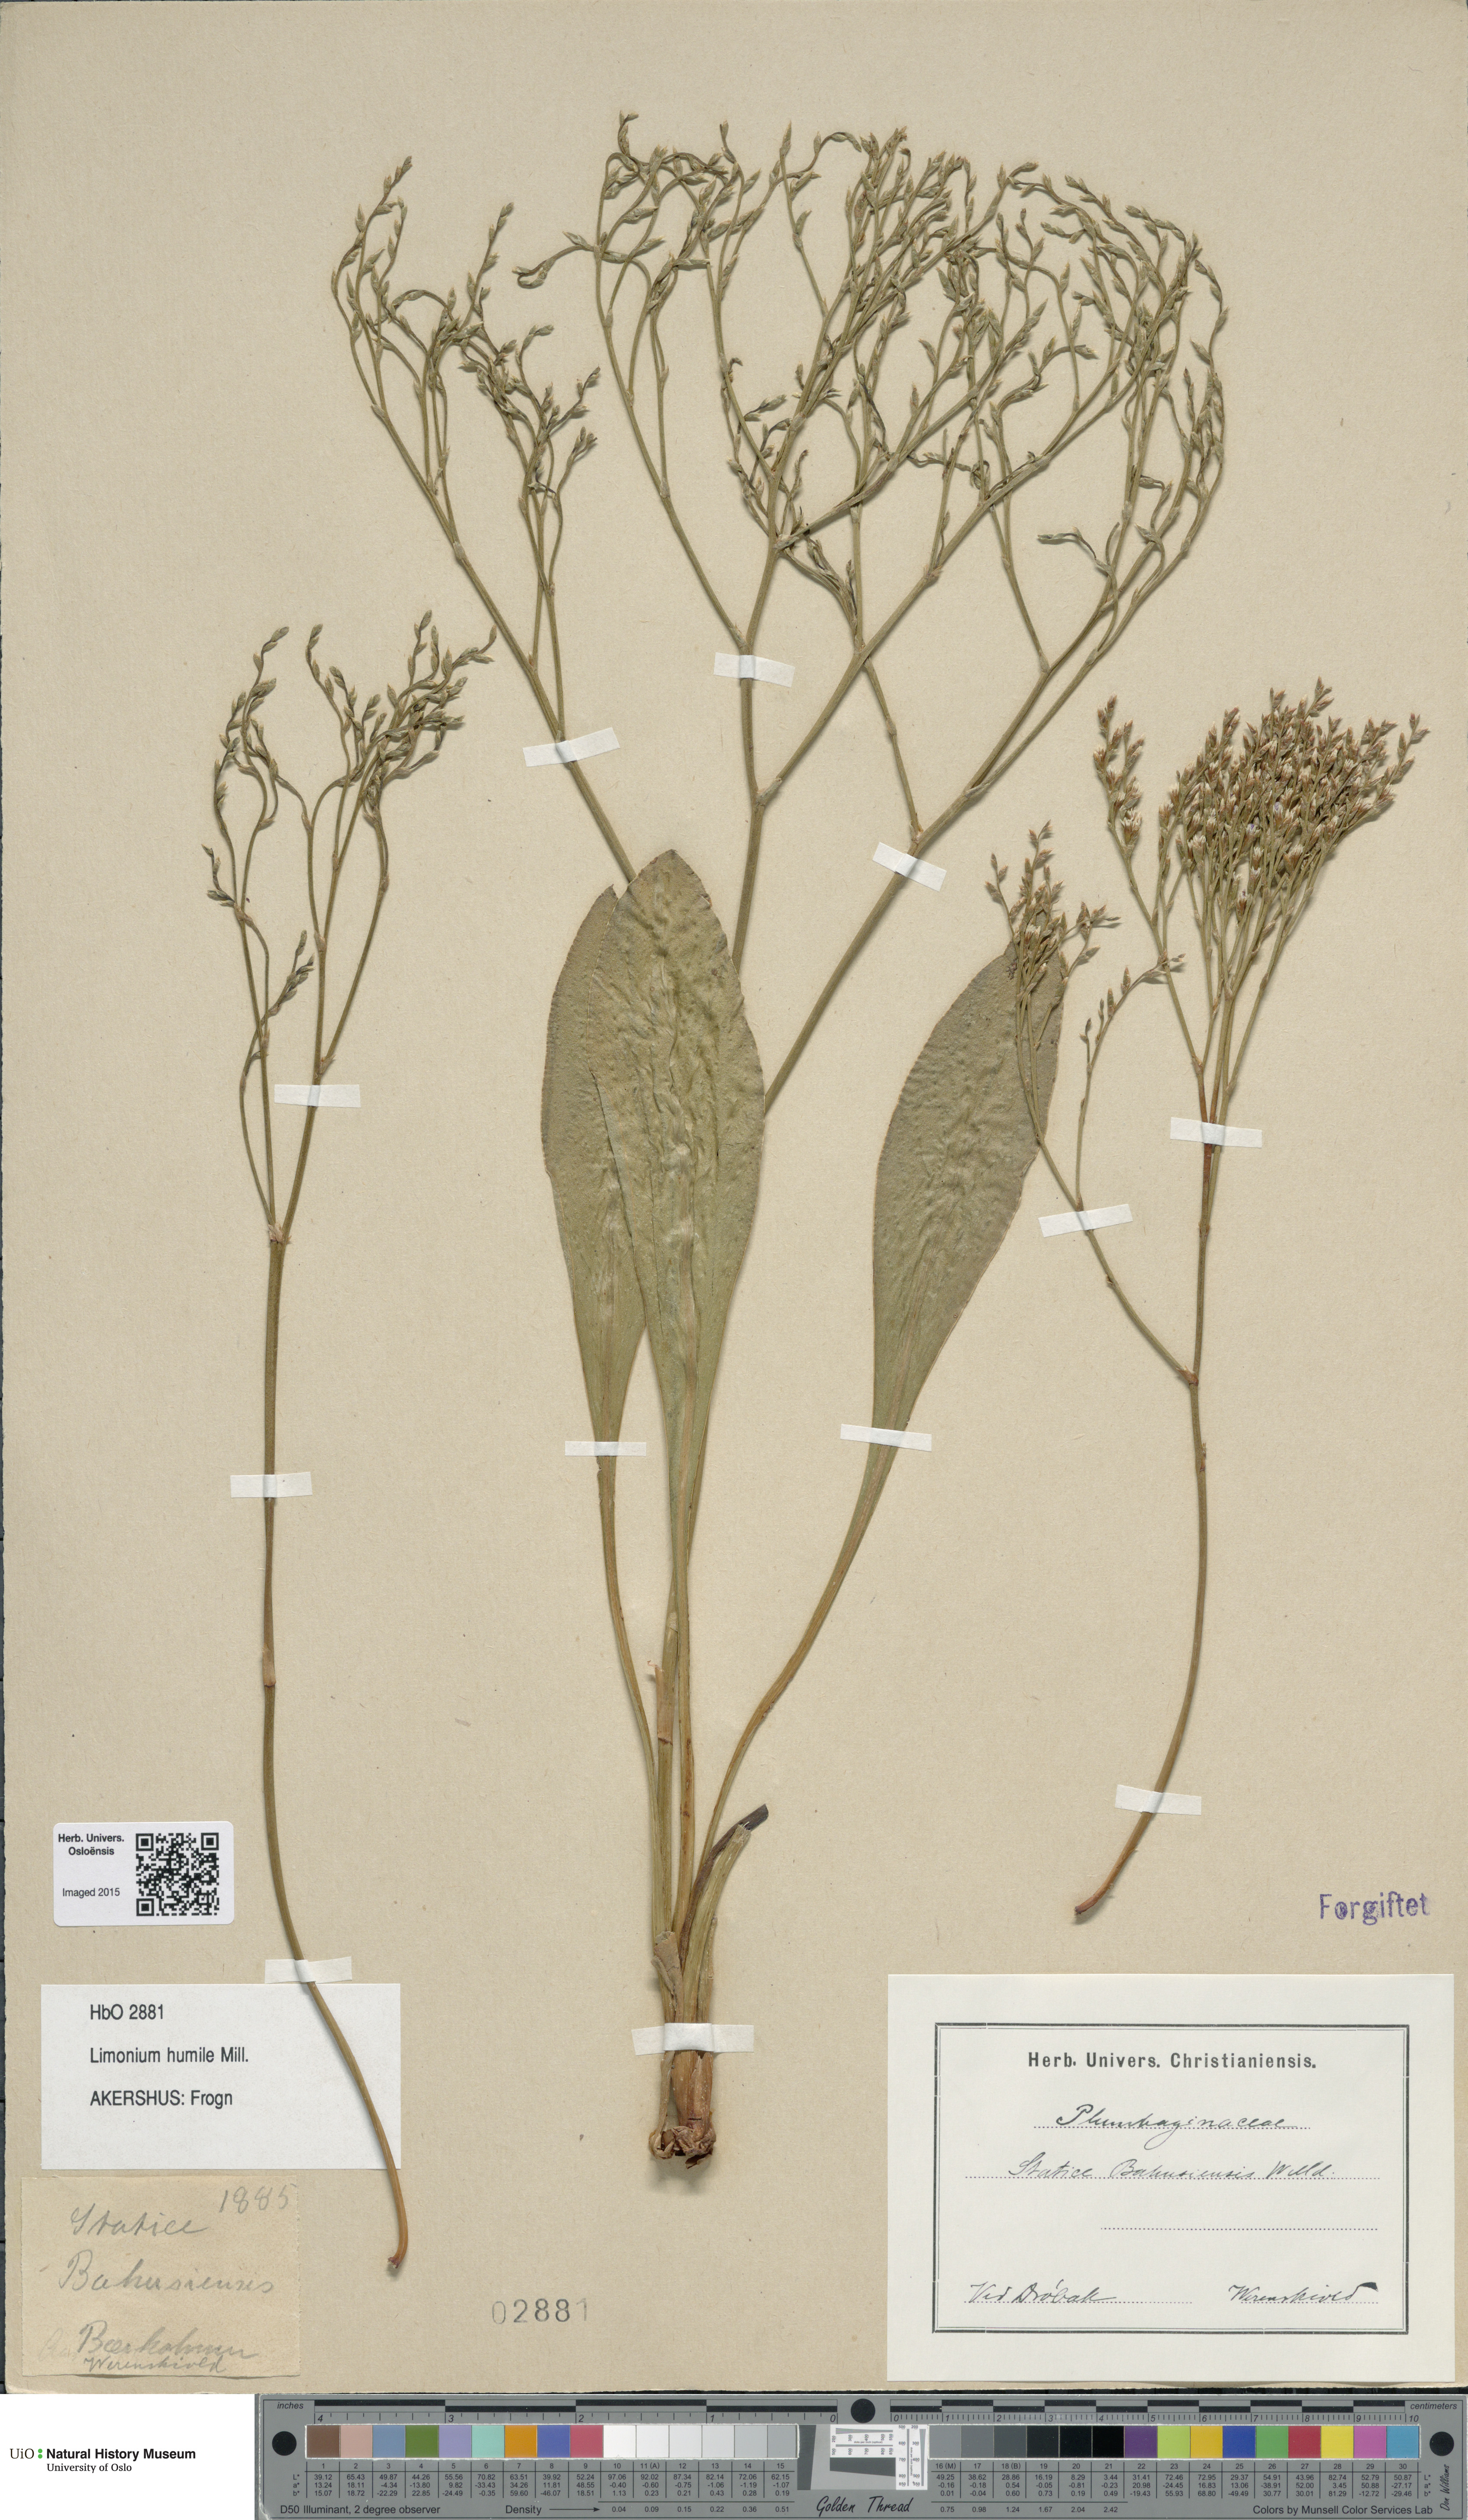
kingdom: Plantae
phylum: Tracheophyta
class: Magnoliopsida
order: Caryophyllales
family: Plumbaginaceae
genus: Limonium
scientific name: Limonium humile
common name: Lax-flowered sea-lavender
